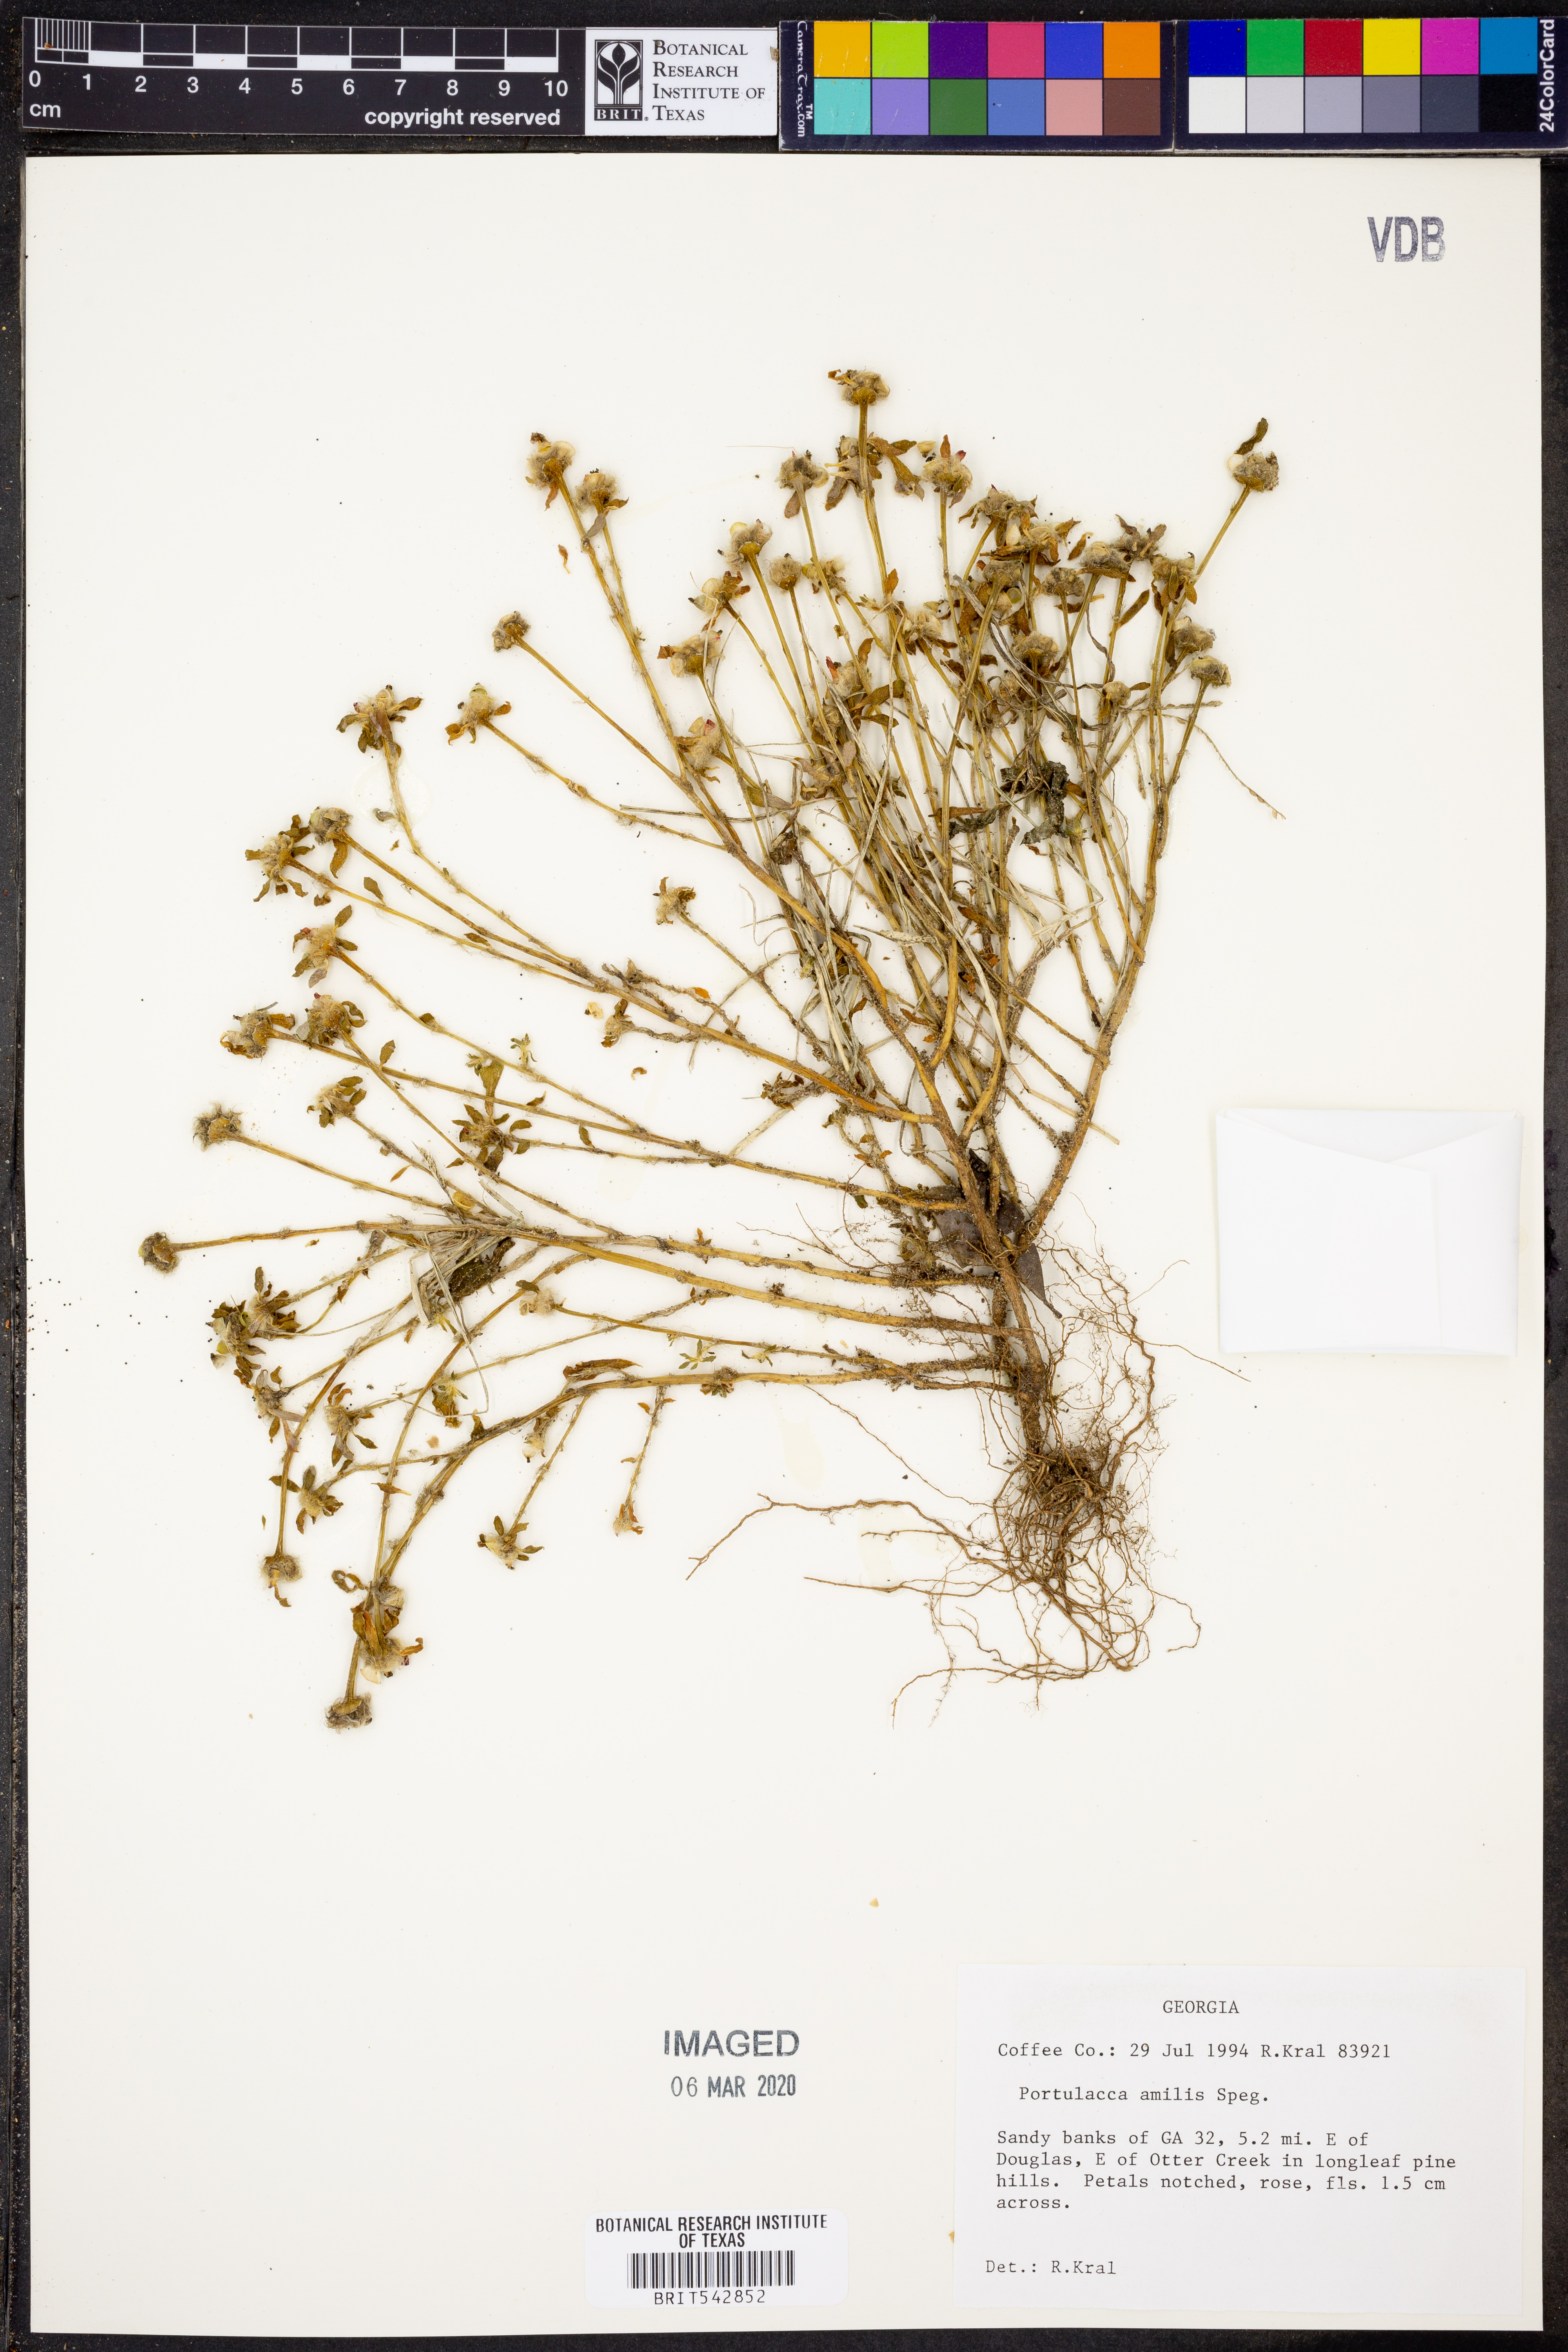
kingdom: Plantae
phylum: Tracheophyta
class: Magnoliopsida
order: Caryophyllales
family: Portulacaceae
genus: Portulaca
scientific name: Portulaca amilis
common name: Paraguayan purslane
